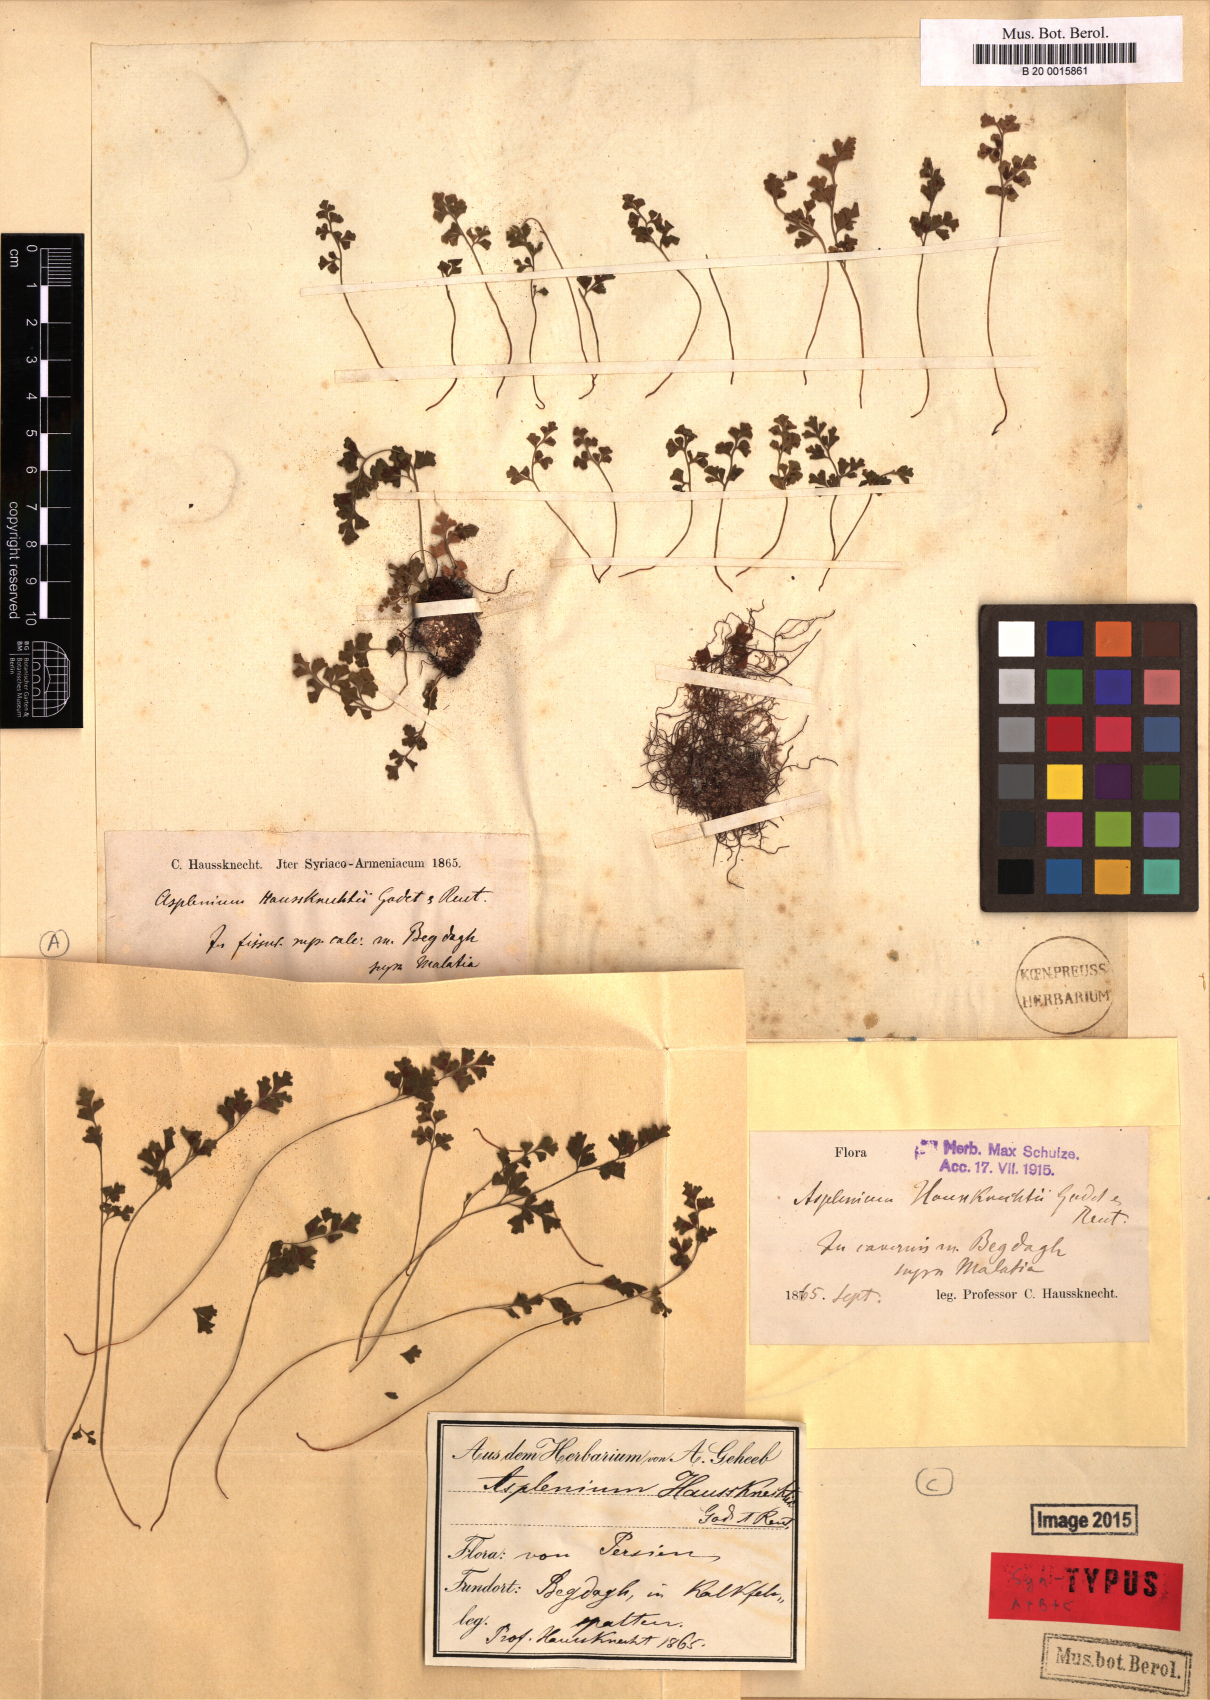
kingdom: Plantae
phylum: Tracheophyta
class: Polypodiopsida
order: Polypodiales
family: Aspleniaceae
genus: Asplenium
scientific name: Asplenium lepidum
